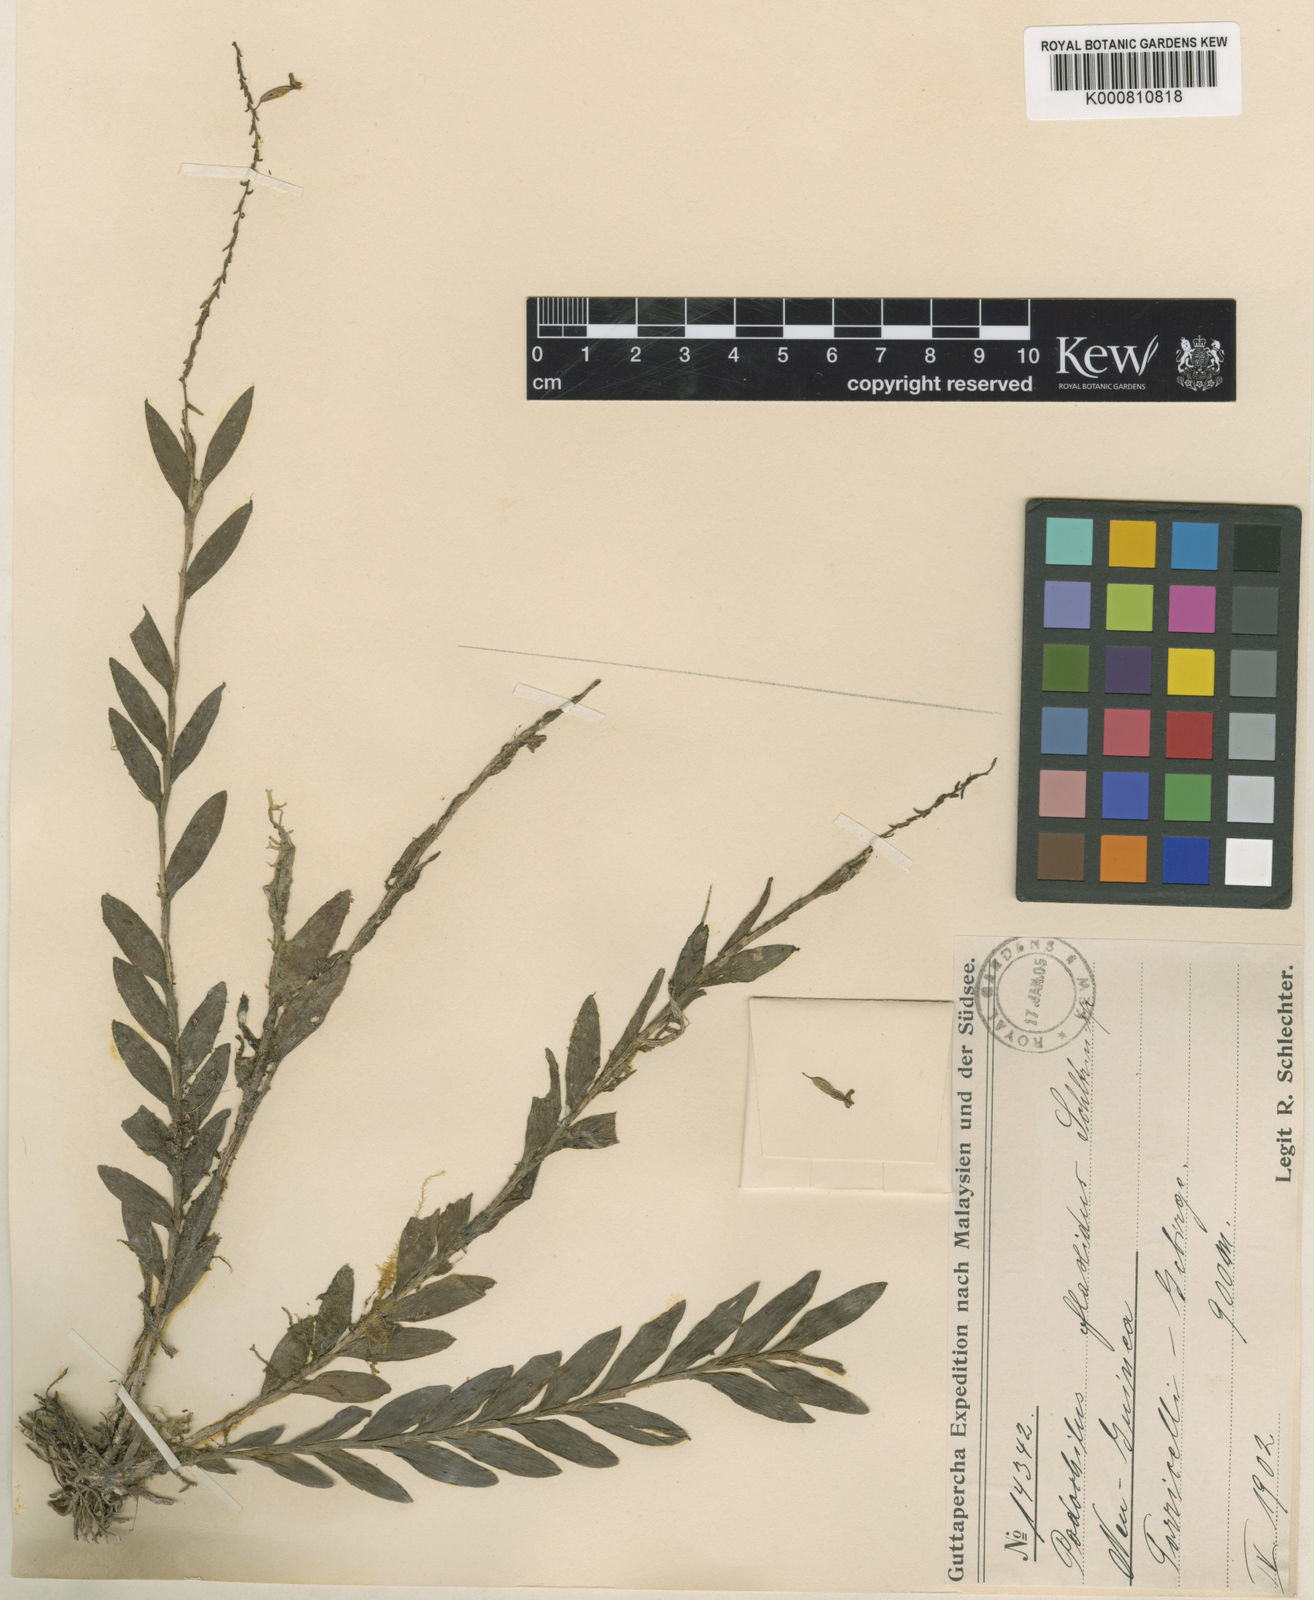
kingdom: Plantae
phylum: Tracheophyta
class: Liliopsida
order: Asparagales
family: Orchidaceae
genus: Appendicula
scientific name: Appendicula flaccida
